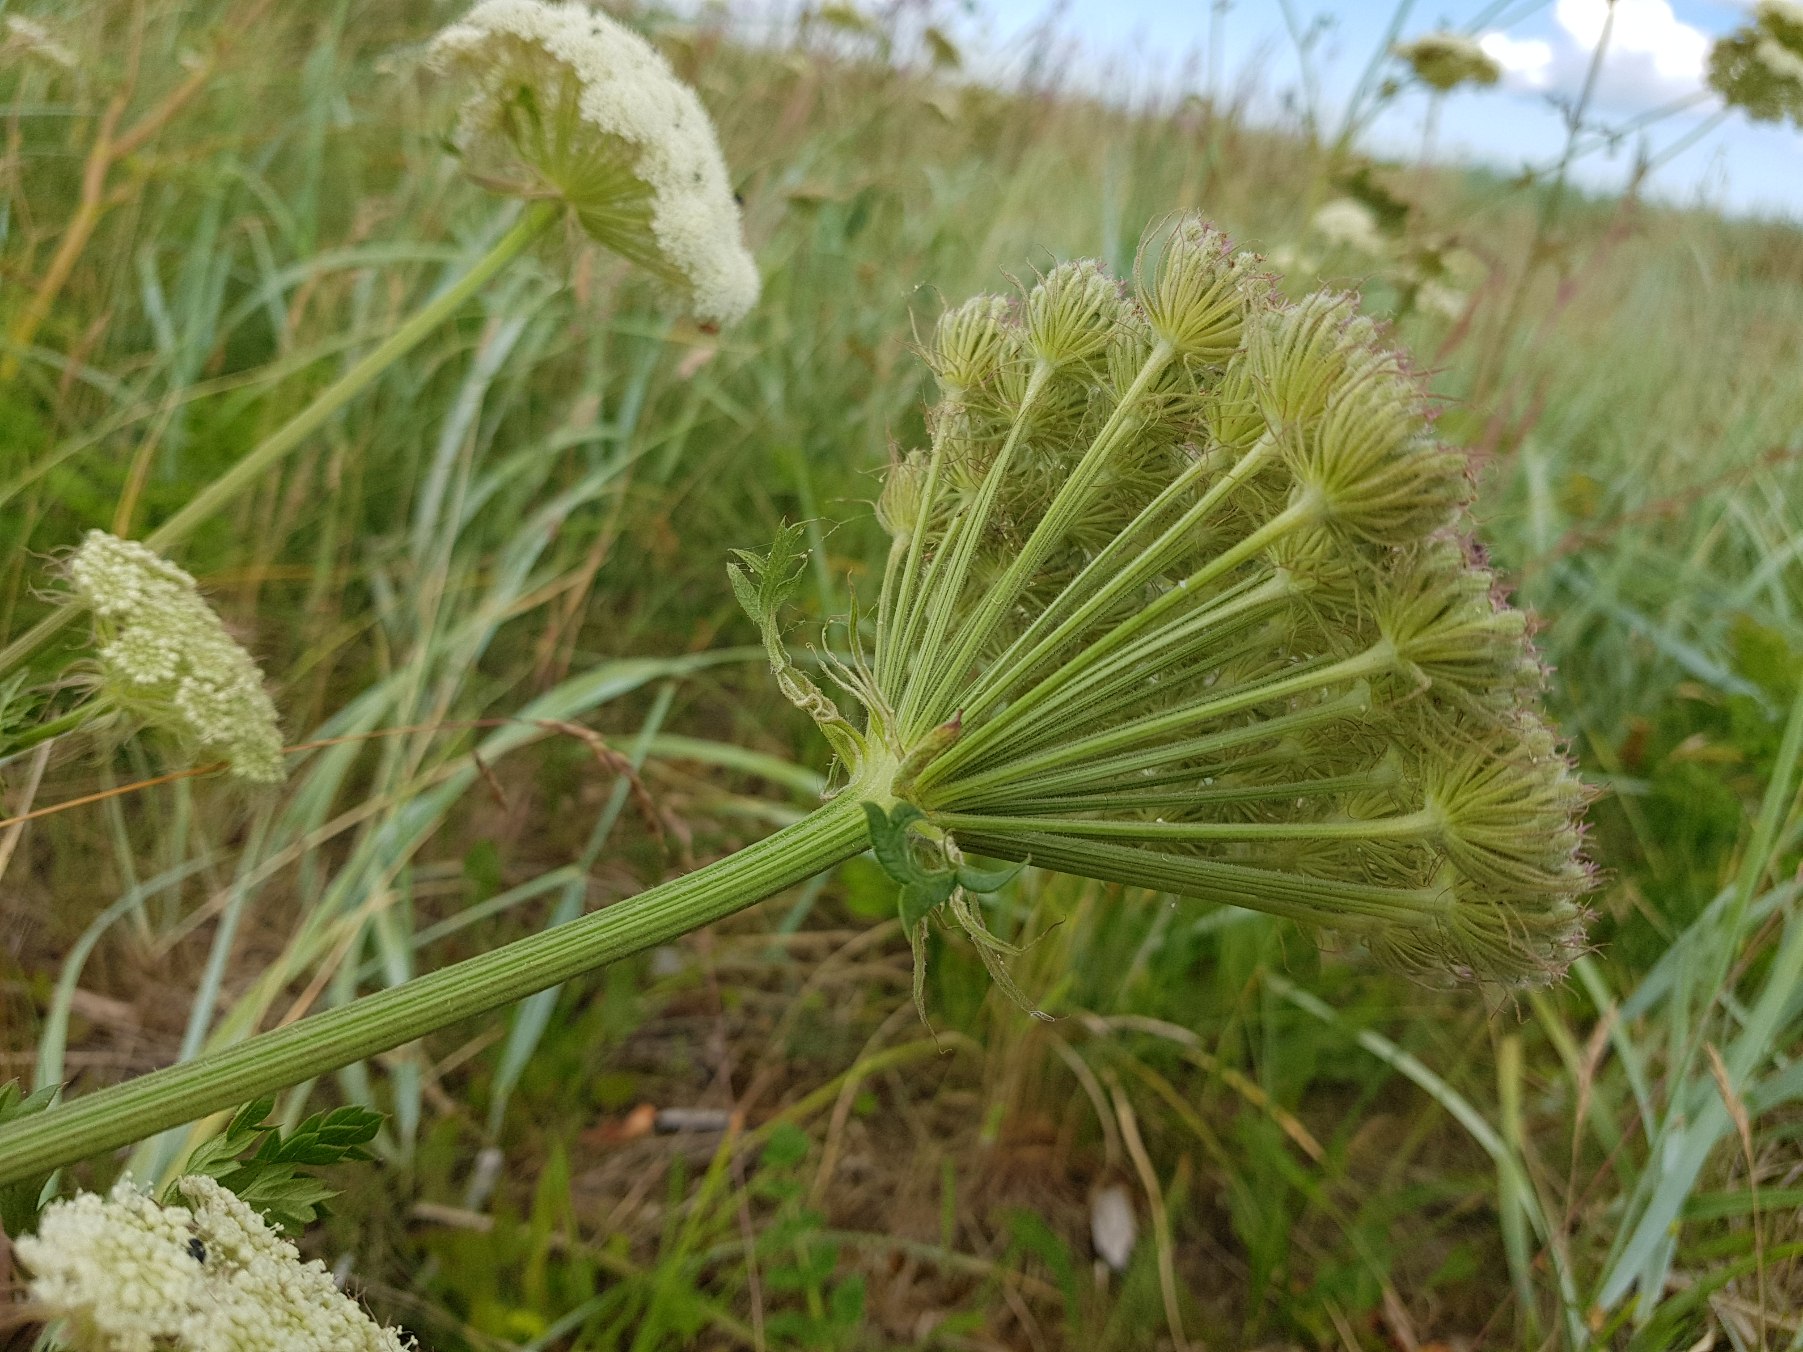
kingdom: Plantae
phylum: Tracheophyta
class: Magnoliopsida
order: Apiales
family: Apiaceae
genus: Seseli
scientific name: Seseli libanotis
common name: Hjorterod
